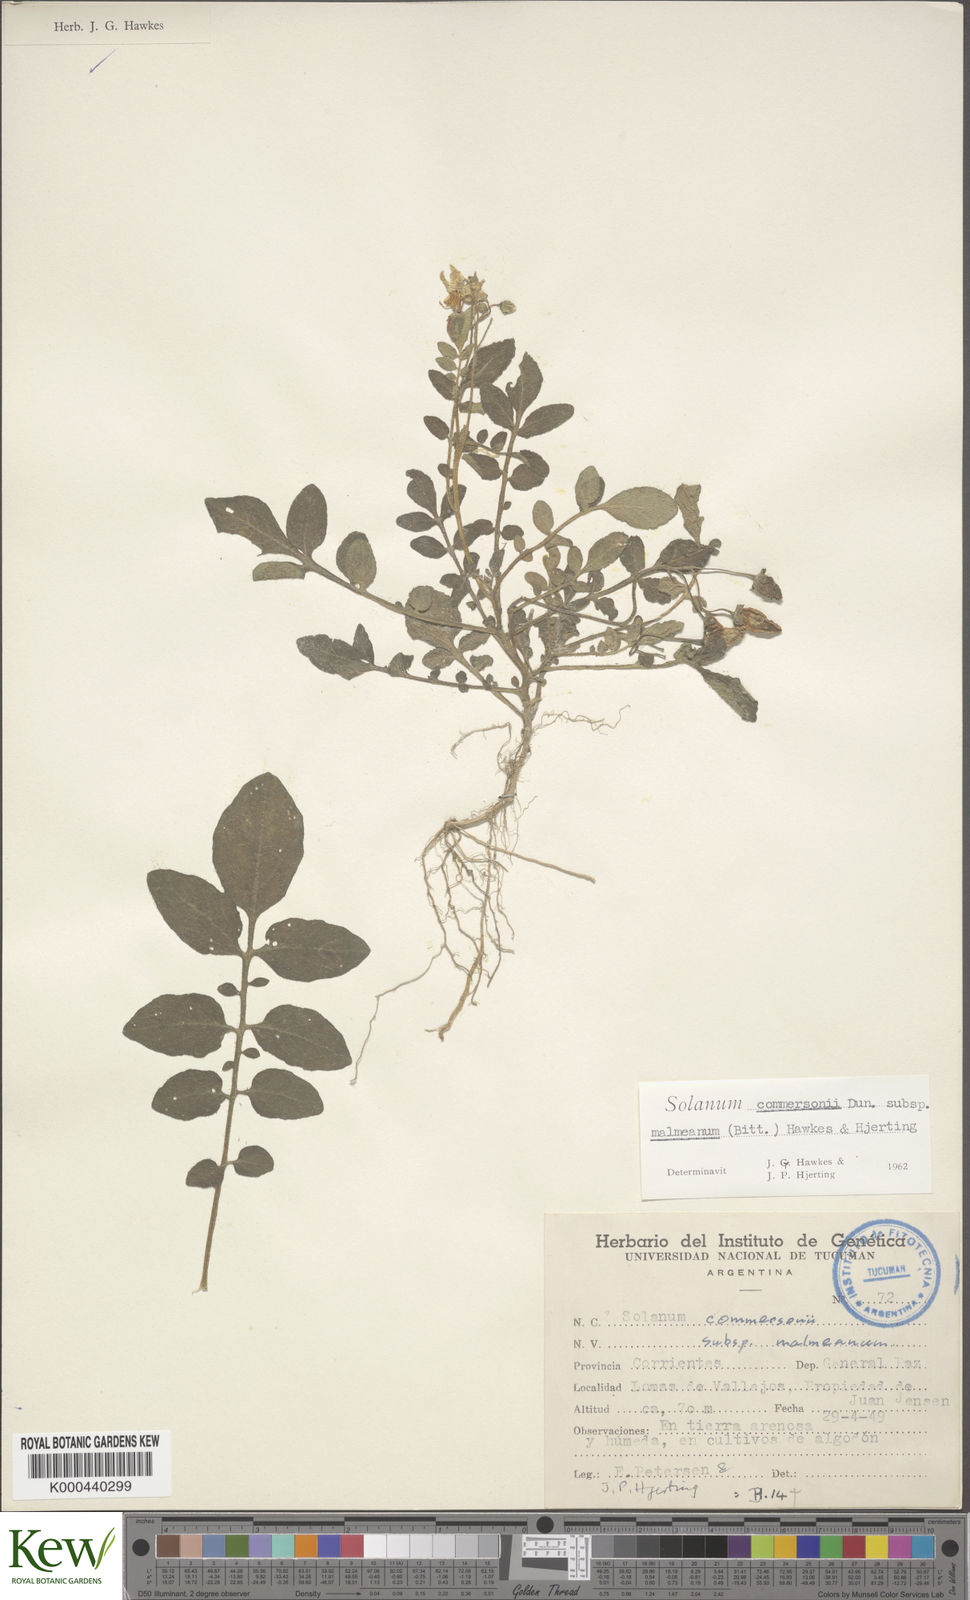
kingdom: Plantae
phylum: Tracheophyta
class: Magnoliopsida
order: Solanales
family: Solanaceae
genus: Solanum
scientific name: Solanum malmeanum
